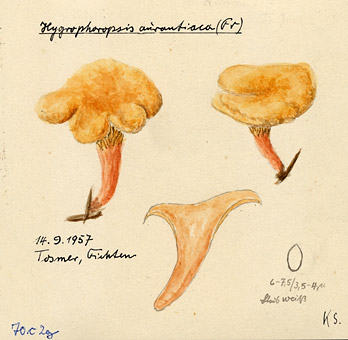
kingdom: Fungi
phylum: Basidiomycota
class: Agaricomycetes
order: Boletales
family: Hygrophoropsidaceae
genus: Hygrophoropsis
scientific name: Hygrophoropsis aurantiaca
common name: False chanterelle
